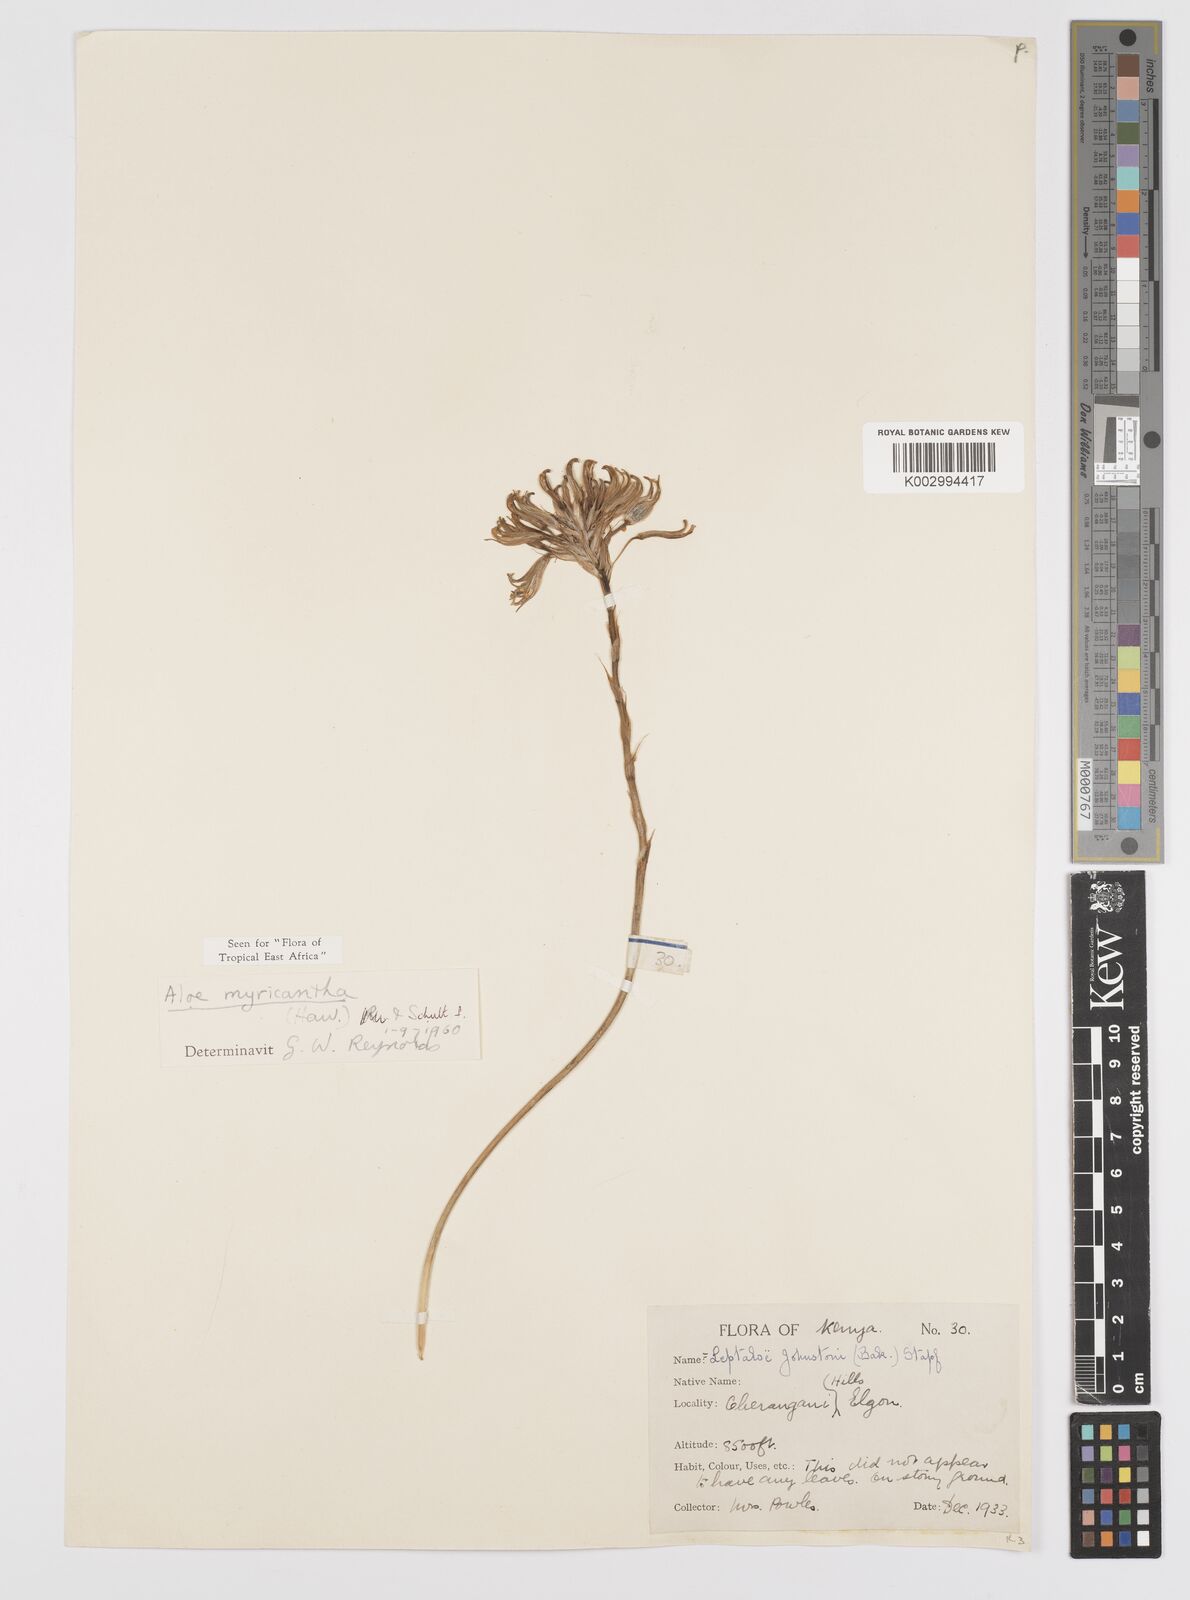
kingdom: Plantae
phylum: Tracheophyta
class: Liliopsida
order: Asparagales
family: Asphodelaceae
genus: Aloe
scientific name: Aloe myriacantha
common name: Grass aloe
